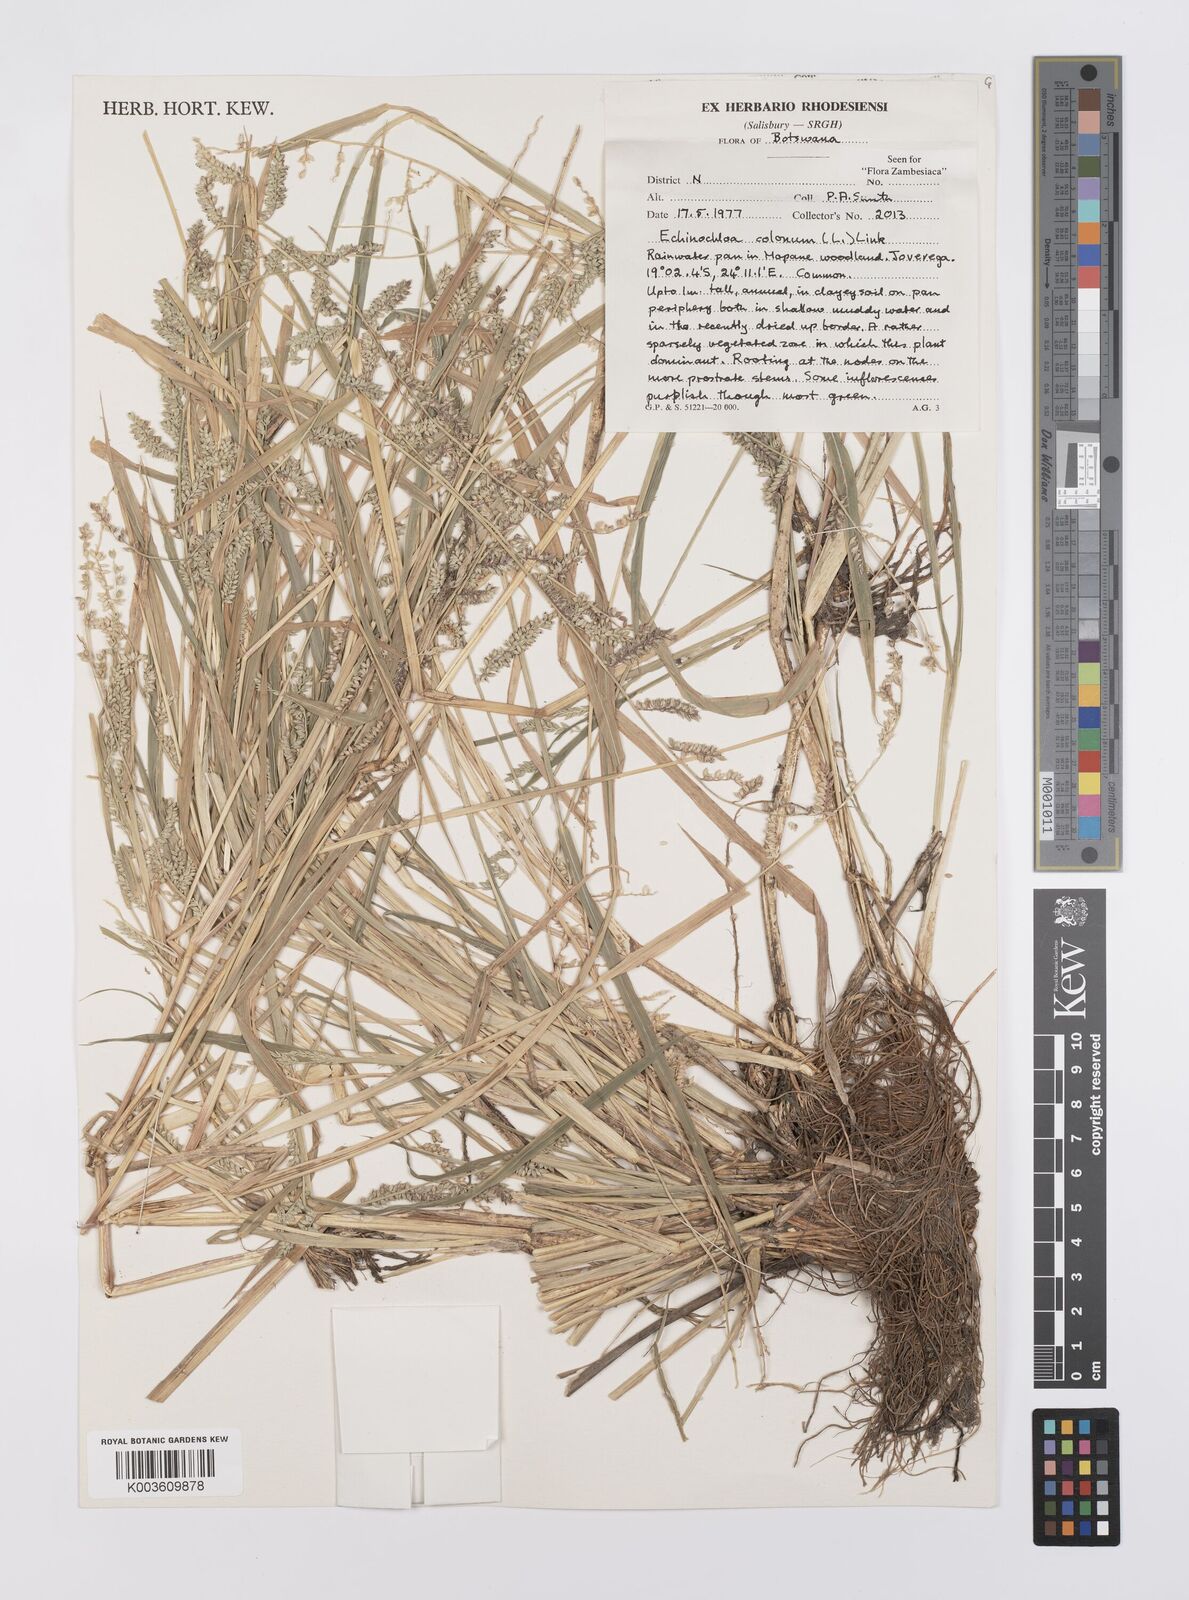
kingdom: Plantae
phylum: Tracheophyta
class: Liliopsida
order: Poales
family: Poaceae
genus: Echinochloa
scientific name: Echinochloa colonum
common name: Jungle rice
